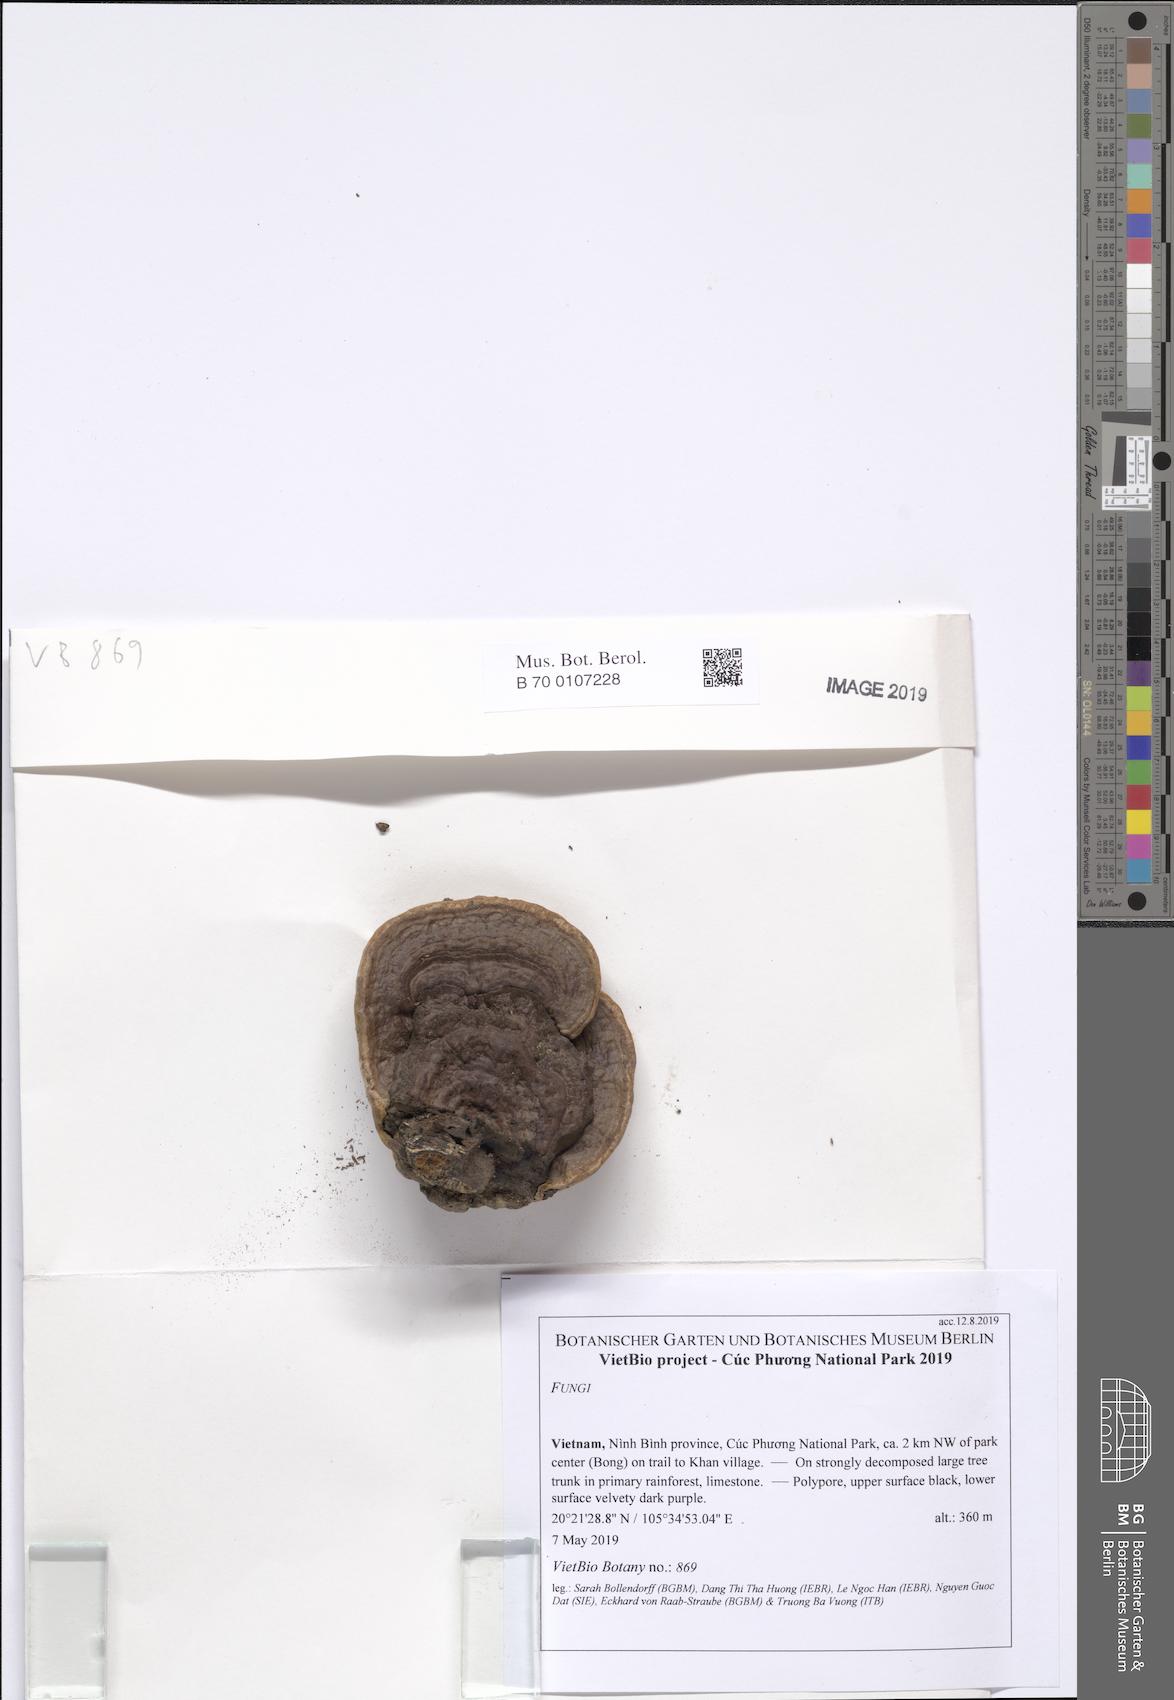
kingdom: Fungi
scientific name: Fungi
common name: Fungi
